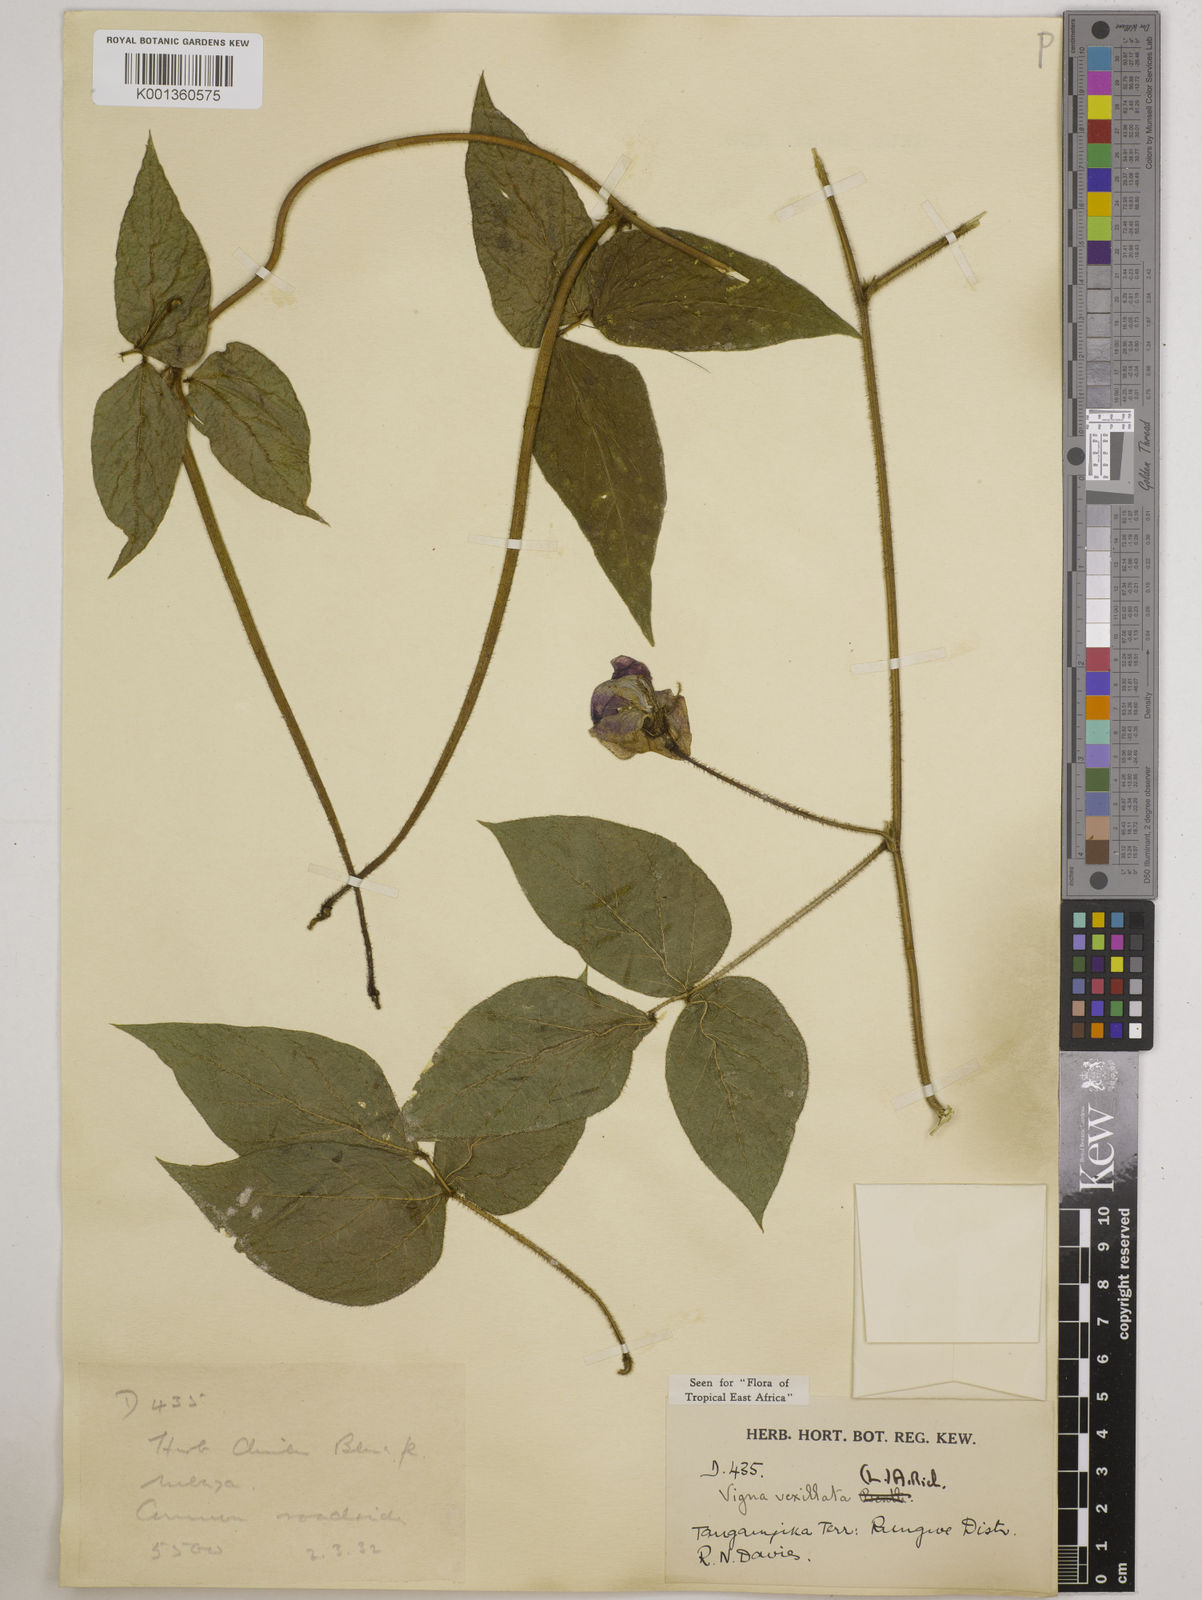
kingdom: Plantae
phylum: Tracheophyta
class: Magnoliopsida
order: Fabales
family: Fabaceae
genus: Vigna
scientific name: Vigna vexillata
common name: Zombi pea
